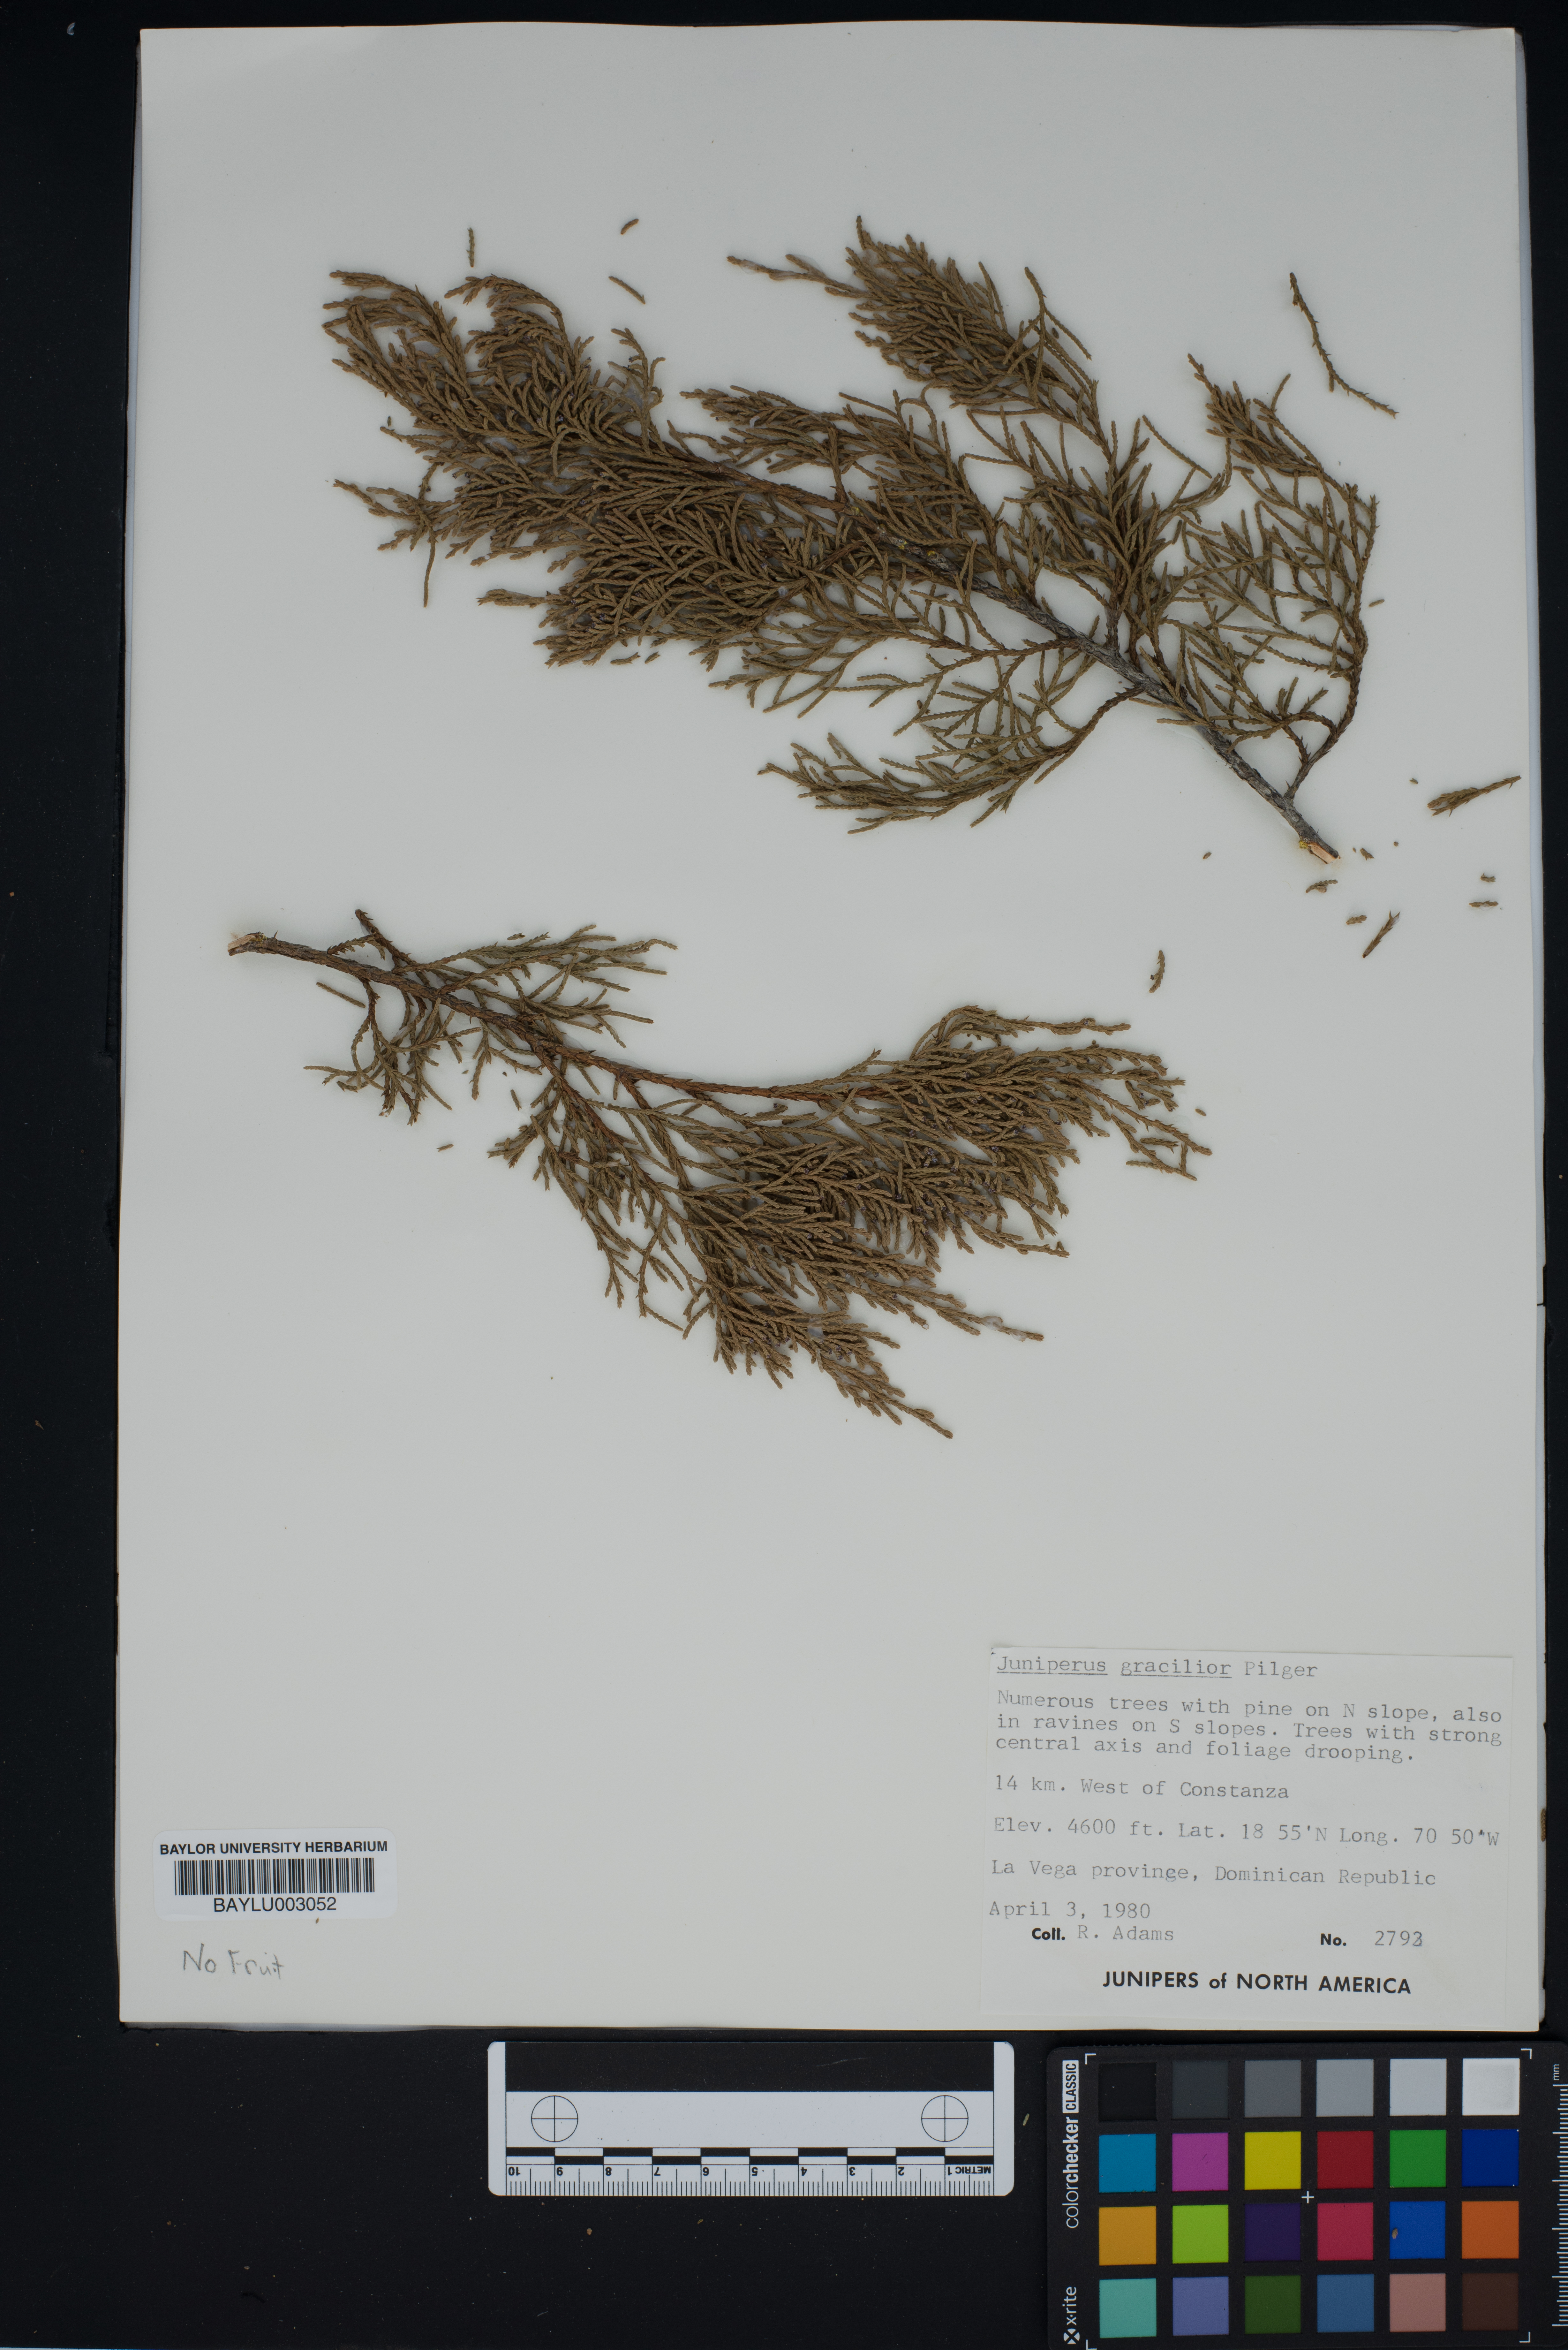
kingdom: Plantae
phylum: Tracheophyta
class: Pinopsida
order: Pinales
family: Cupressaceae
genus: Juniperus
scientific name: Juniperus gracilior
